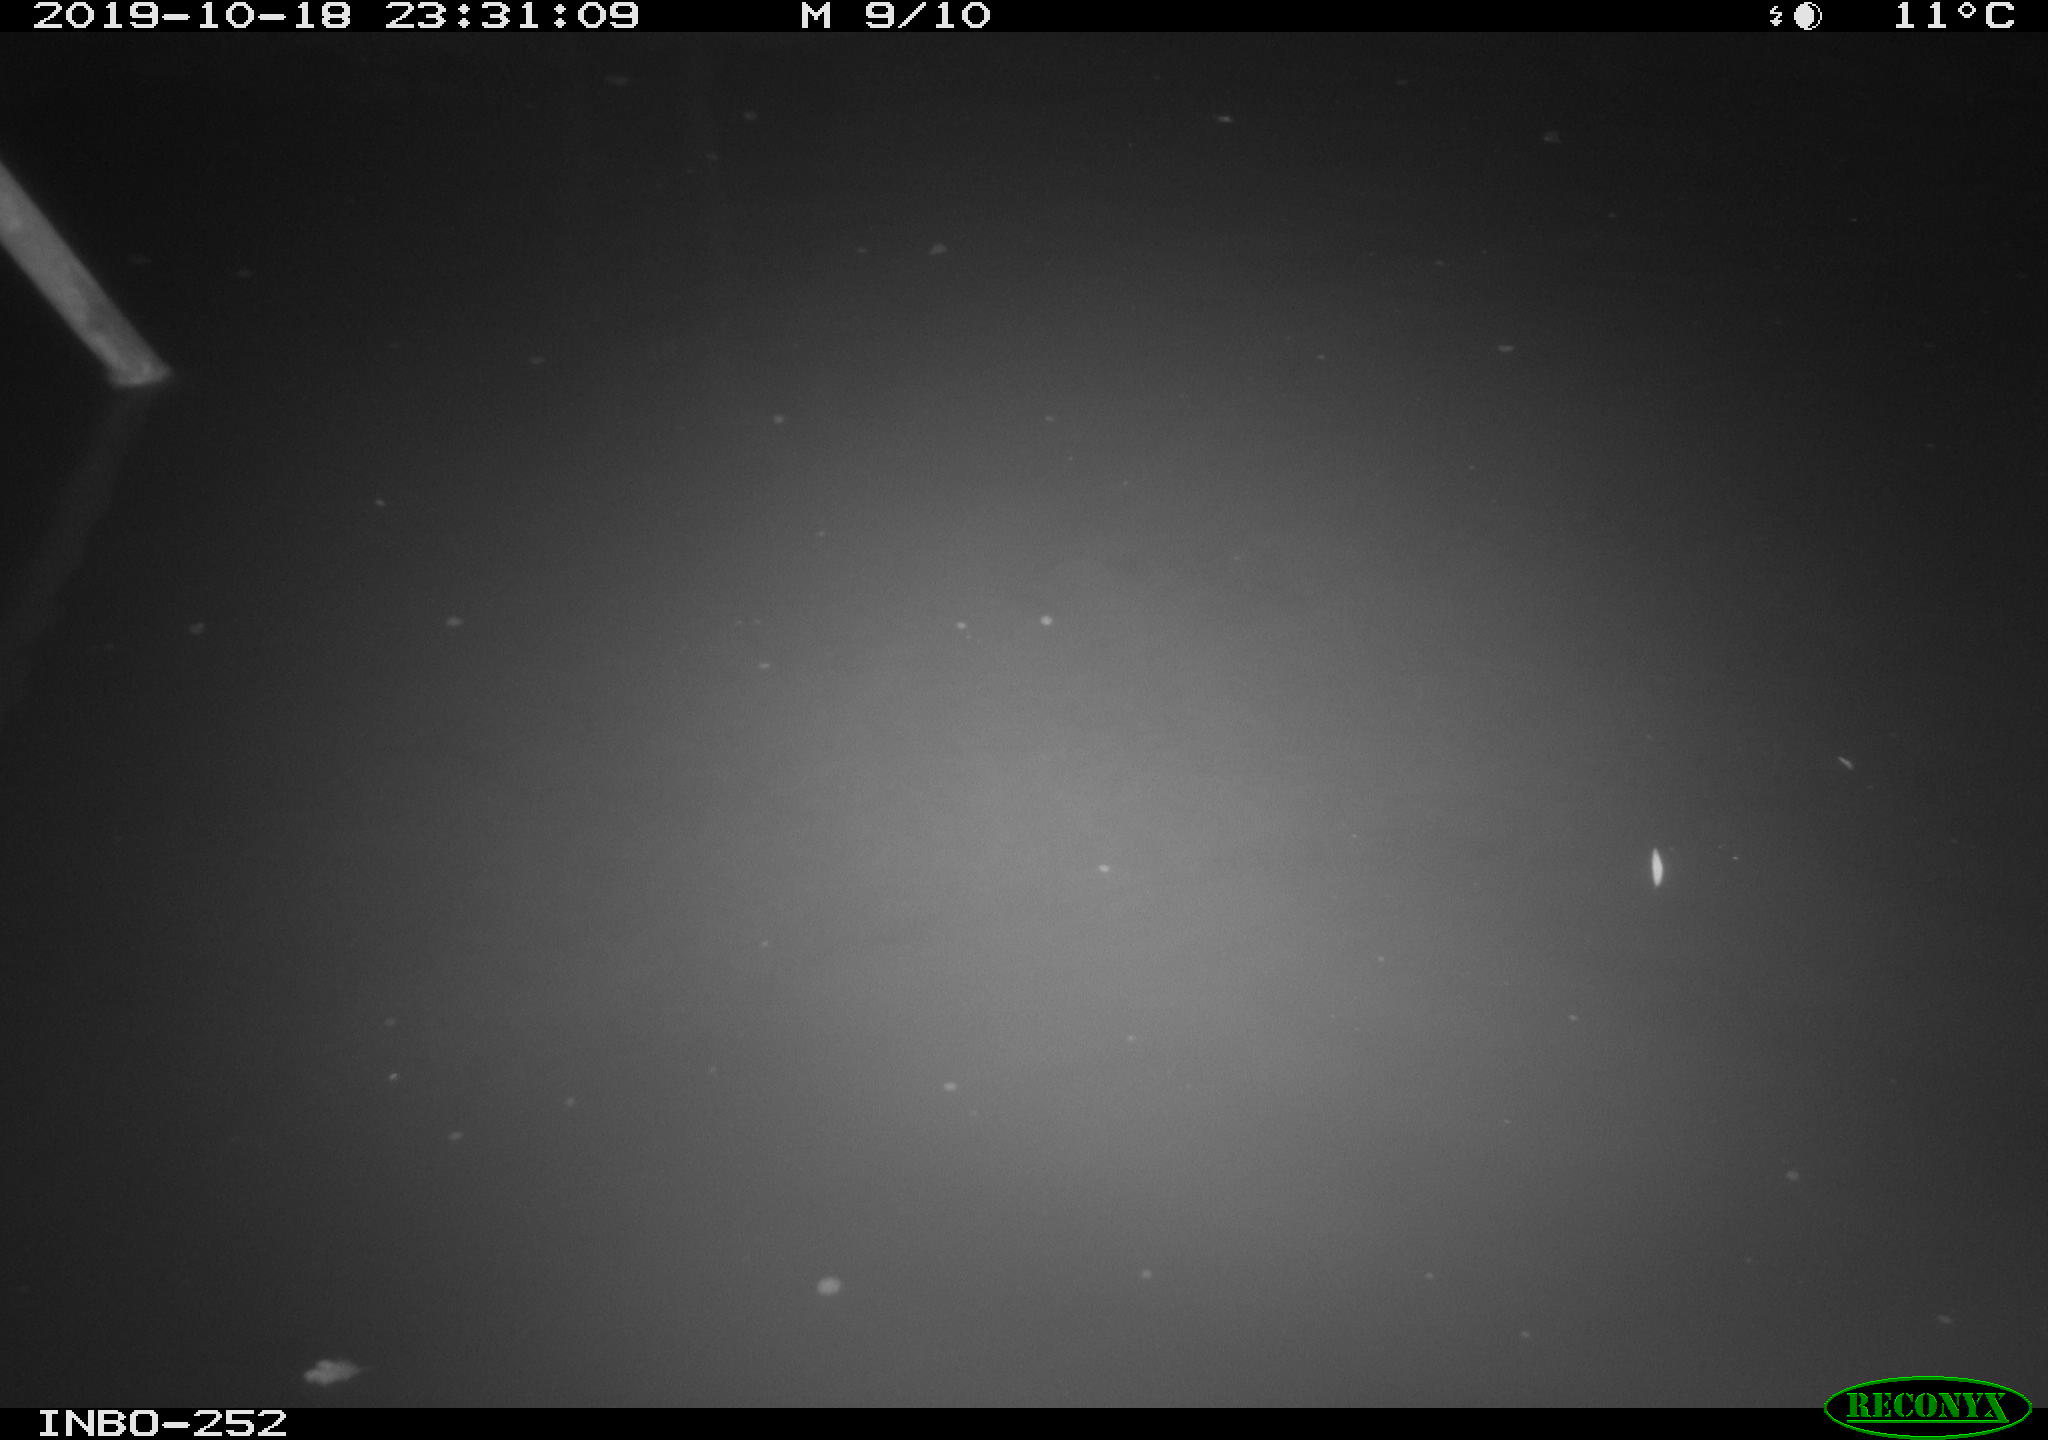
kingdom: Animalia
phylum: Chordata
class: Aves
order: Anseriformes
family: Anatidae
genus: Anas
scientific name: Anas platyrhynchos
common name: Mallard
